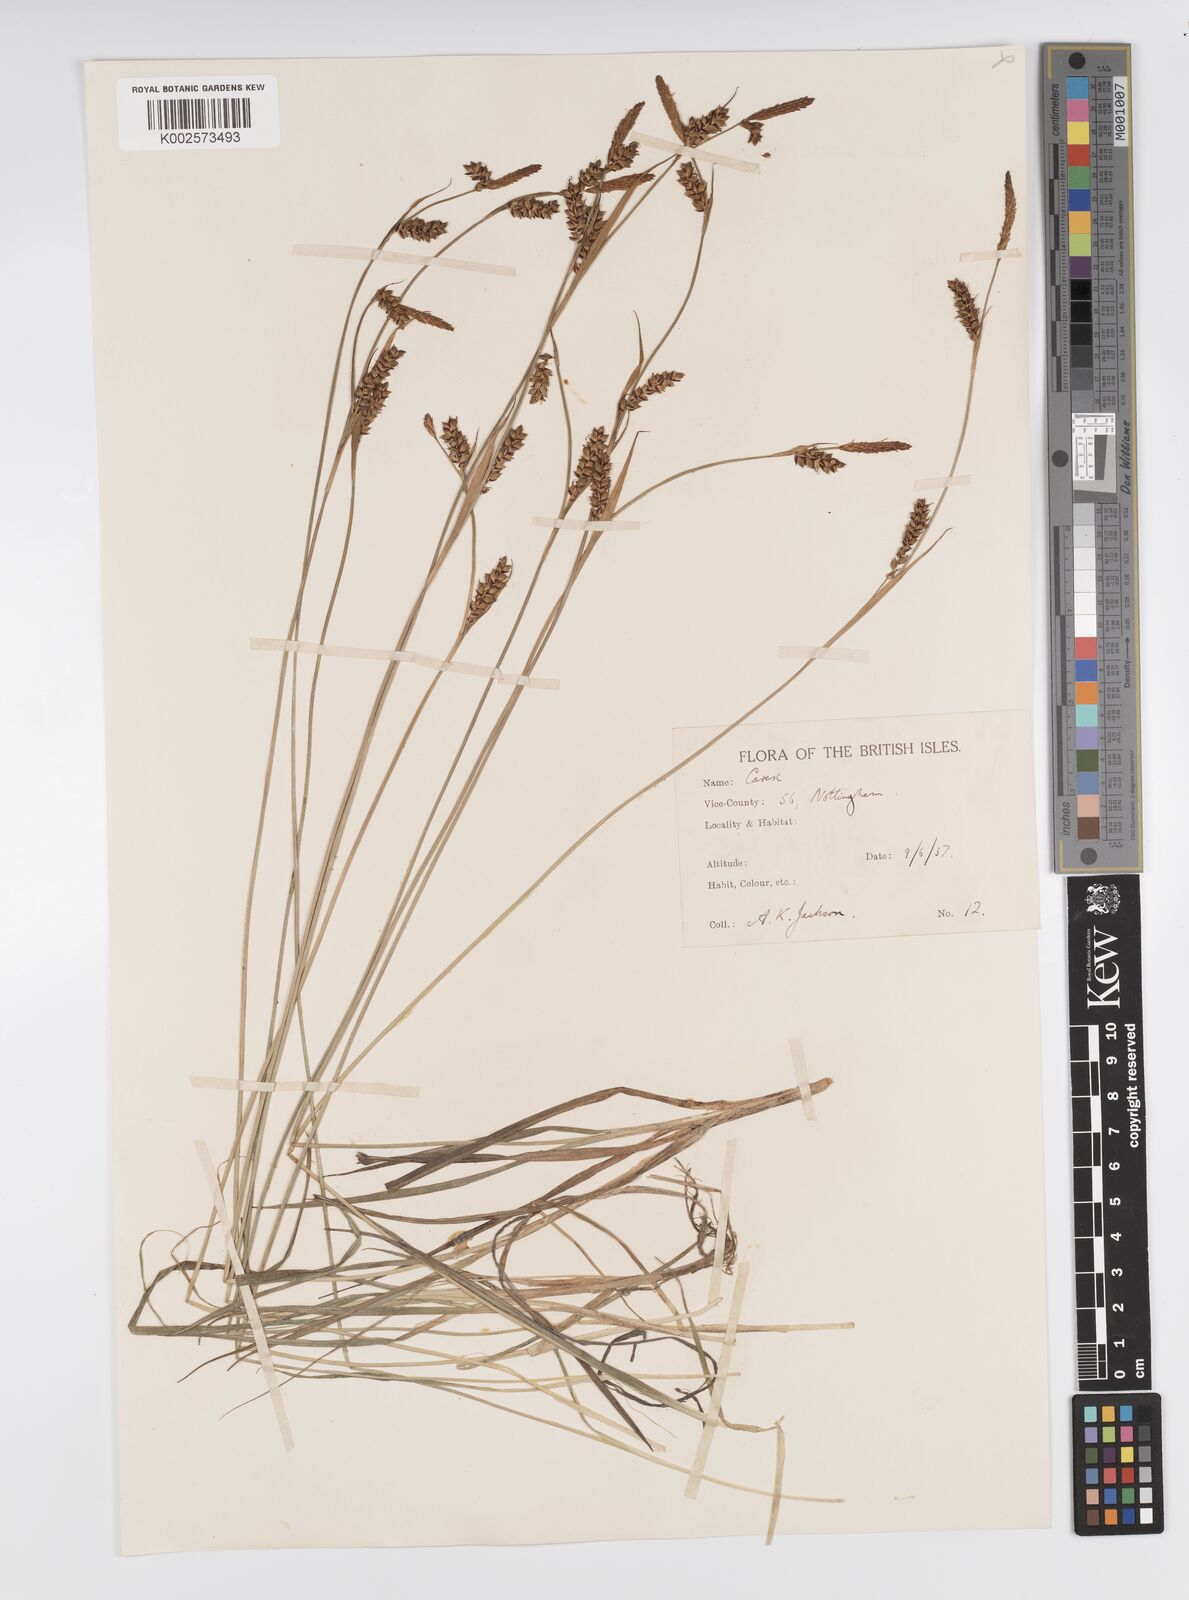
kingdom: Plantae
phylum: Tracheophyta
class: Liliopsida
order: Poales
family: Cyperaceae
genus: Carex
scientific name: Carex panicea
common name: Carnation sedge
